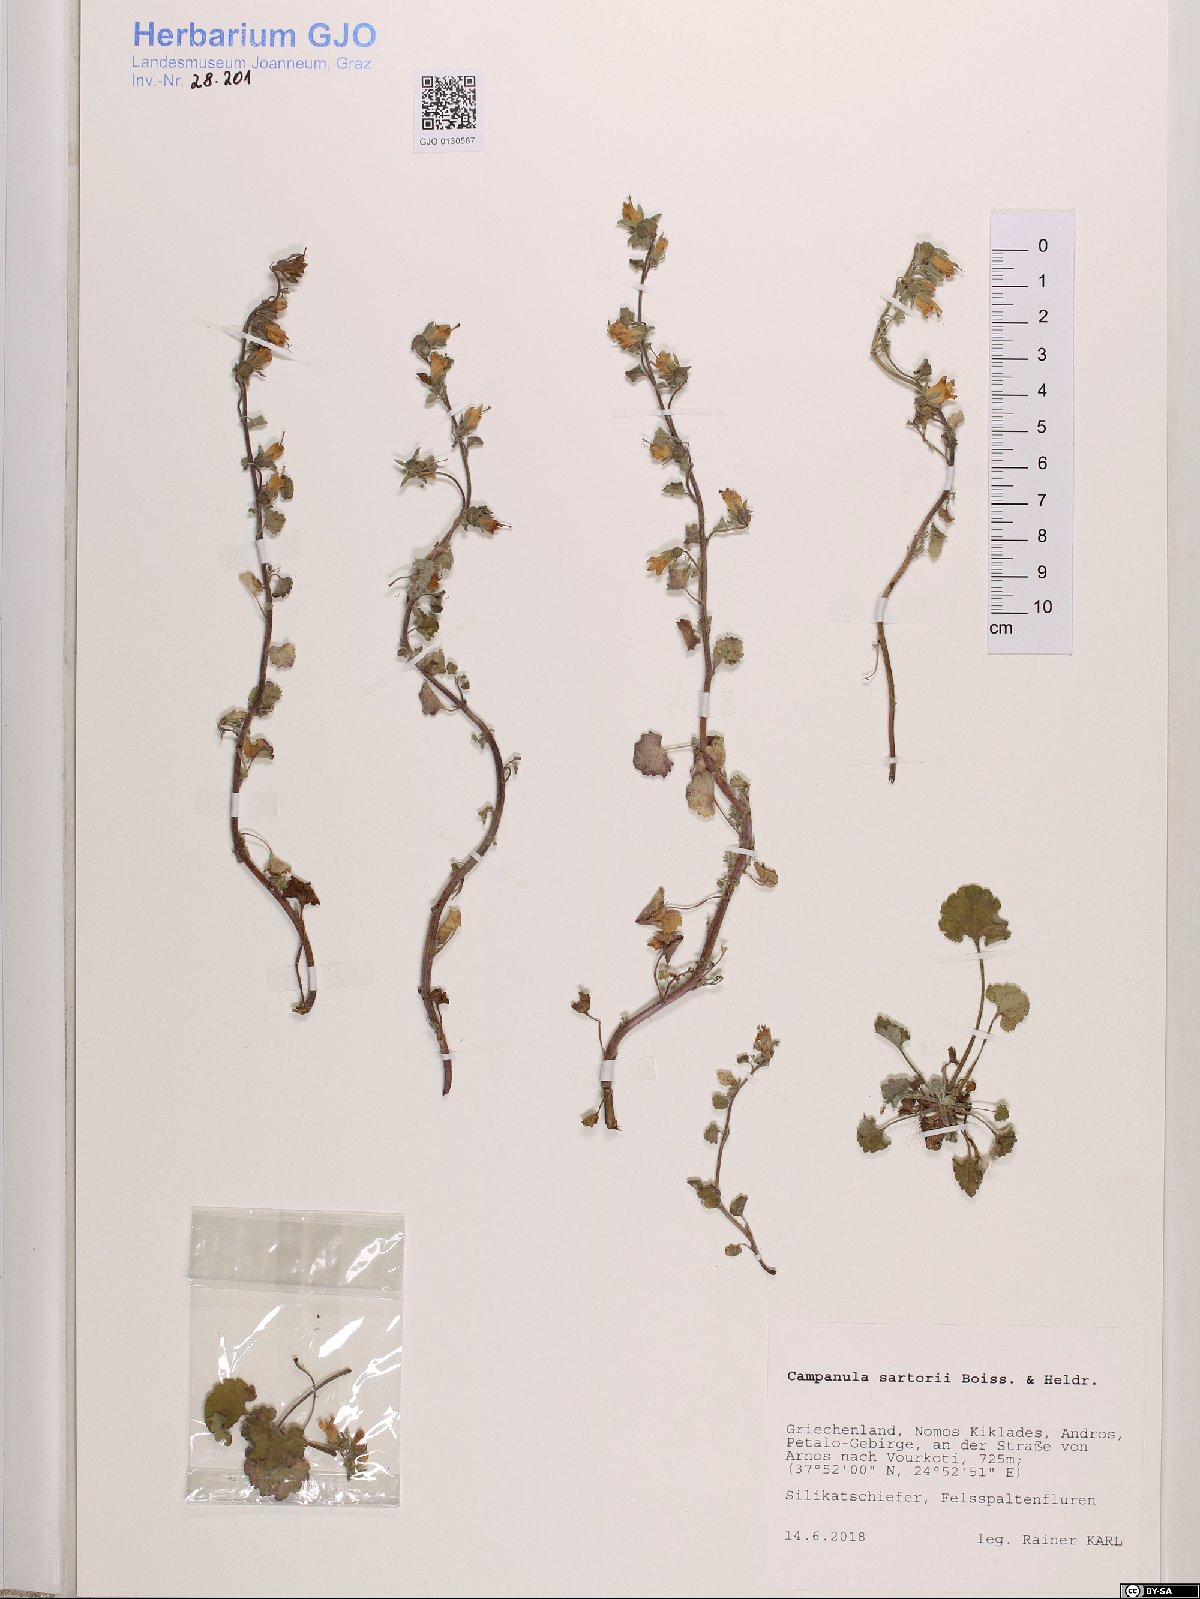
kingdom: Plantae
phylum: Tracheophyta
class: Magnoliopsida
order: Asterales
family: Campanulaceae
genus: Campanula
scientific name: Campanula sartorii
